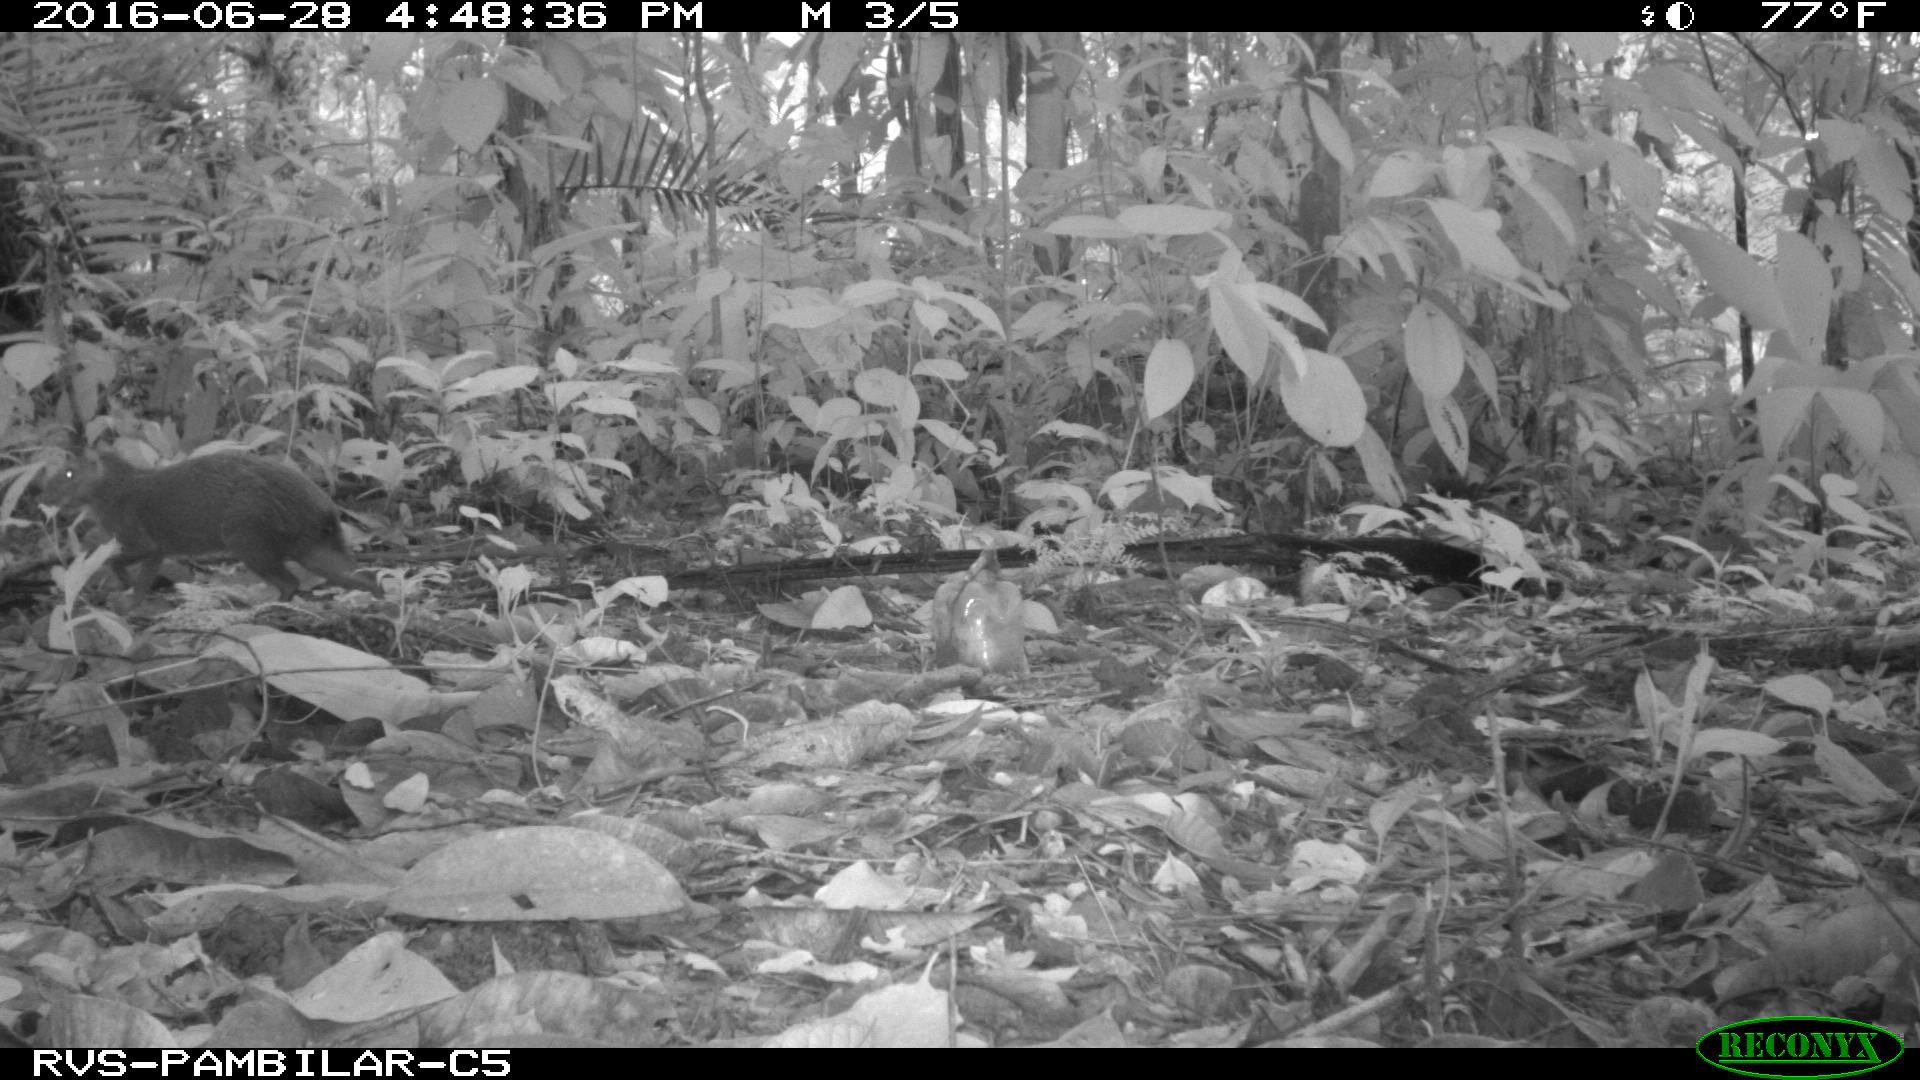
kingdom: Animalia
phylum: Chordata
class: Mammalia
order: Rodentia
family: Dasyproctidae
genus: Dasyprocta
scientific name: Dasyprocta punctata
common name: Central american agouti
